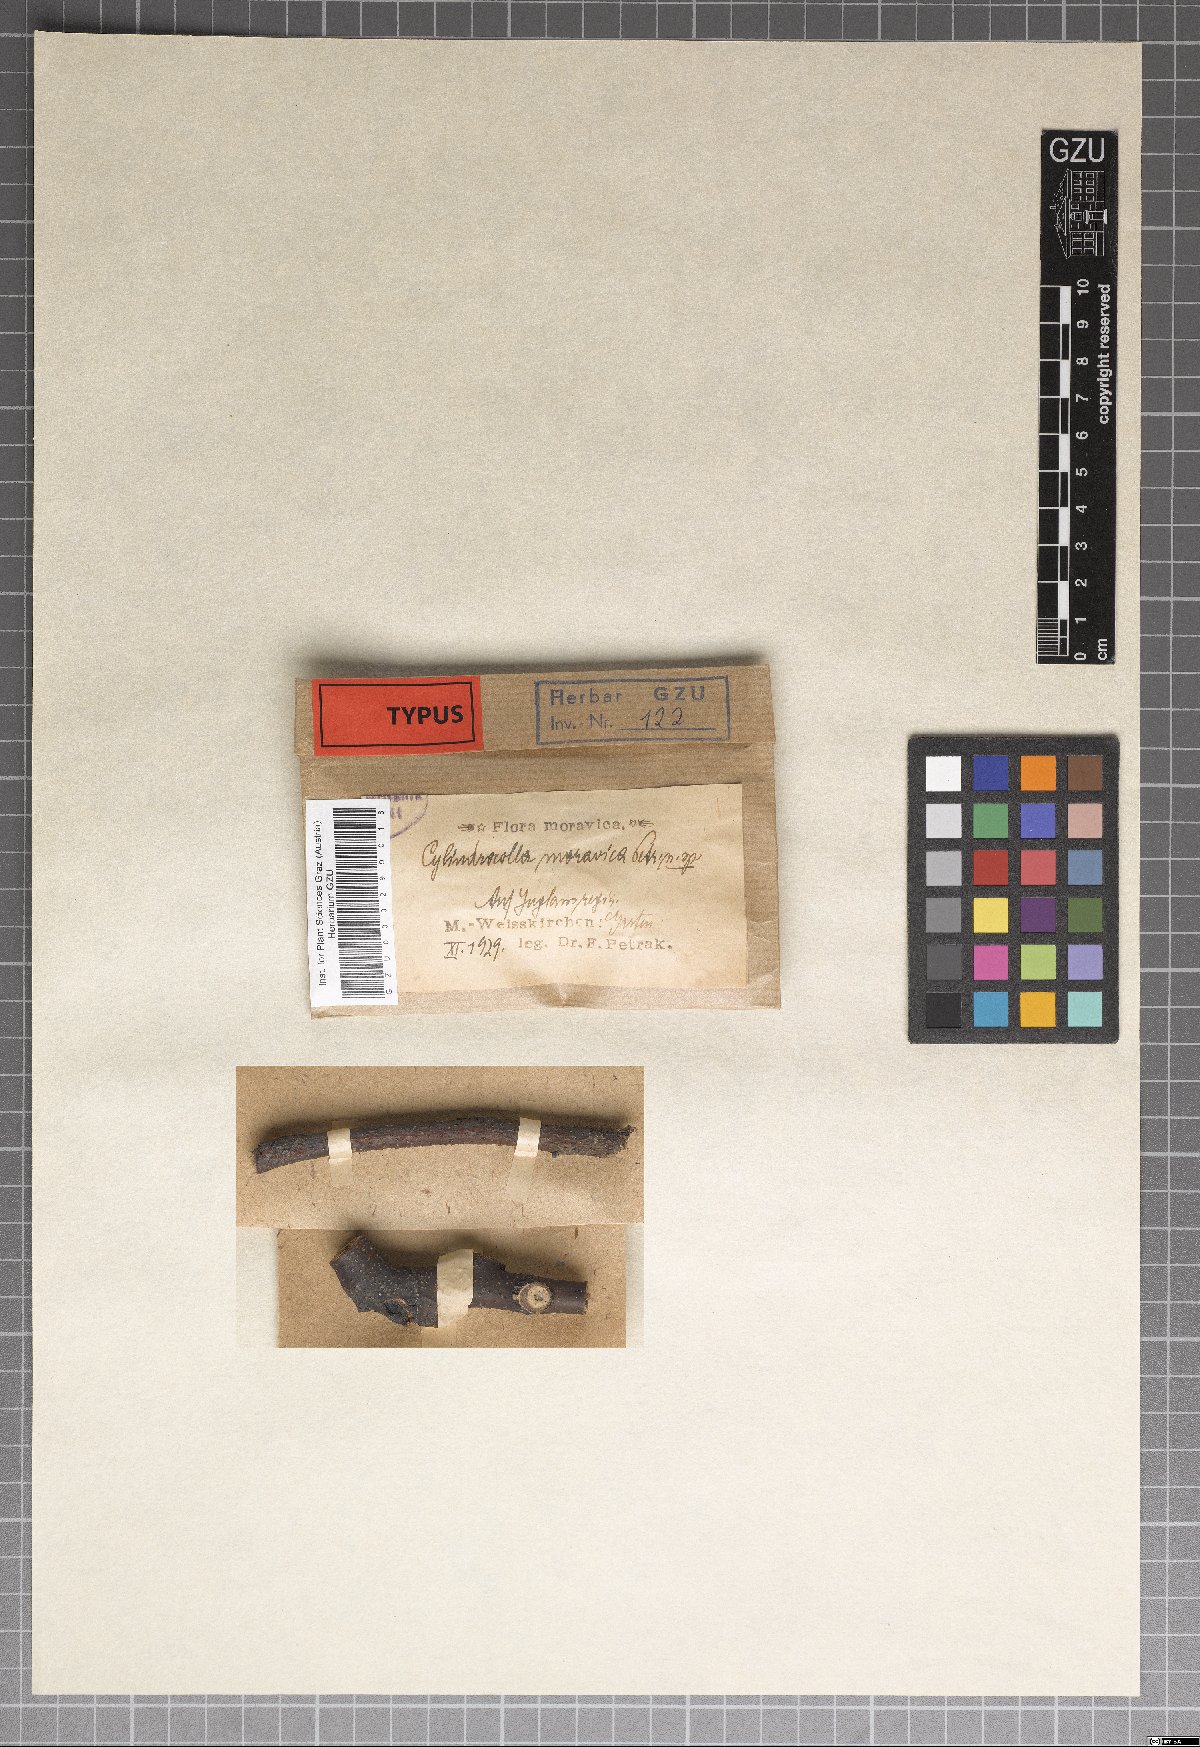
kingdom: Fungi
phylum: Ascomycota
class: Leotiomycetes
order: Helotiales
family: Calloriaceae
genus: Cylindrocolla
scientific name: Cylindrocolla moravica
